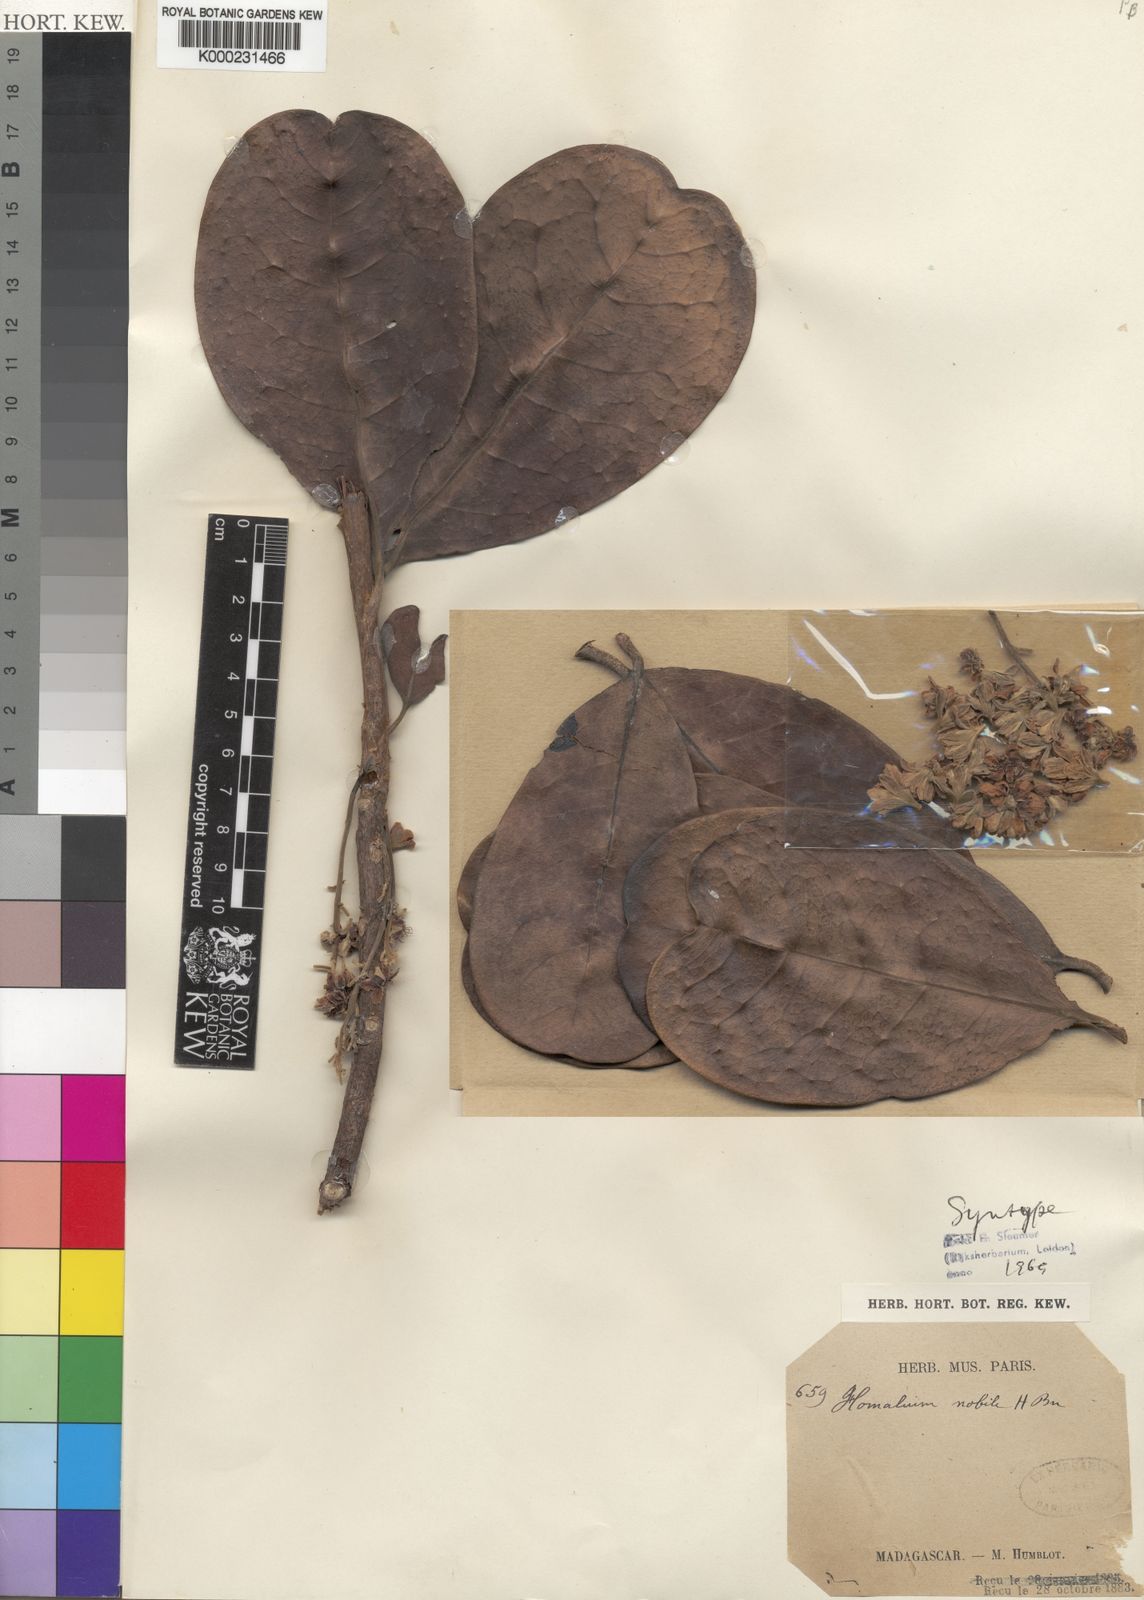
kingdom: Plantae
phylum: Tracheophyta
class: Magnoliopsida
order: Malpighiales
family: Salicaceae
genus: Homalium
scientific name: Homalium nobile
